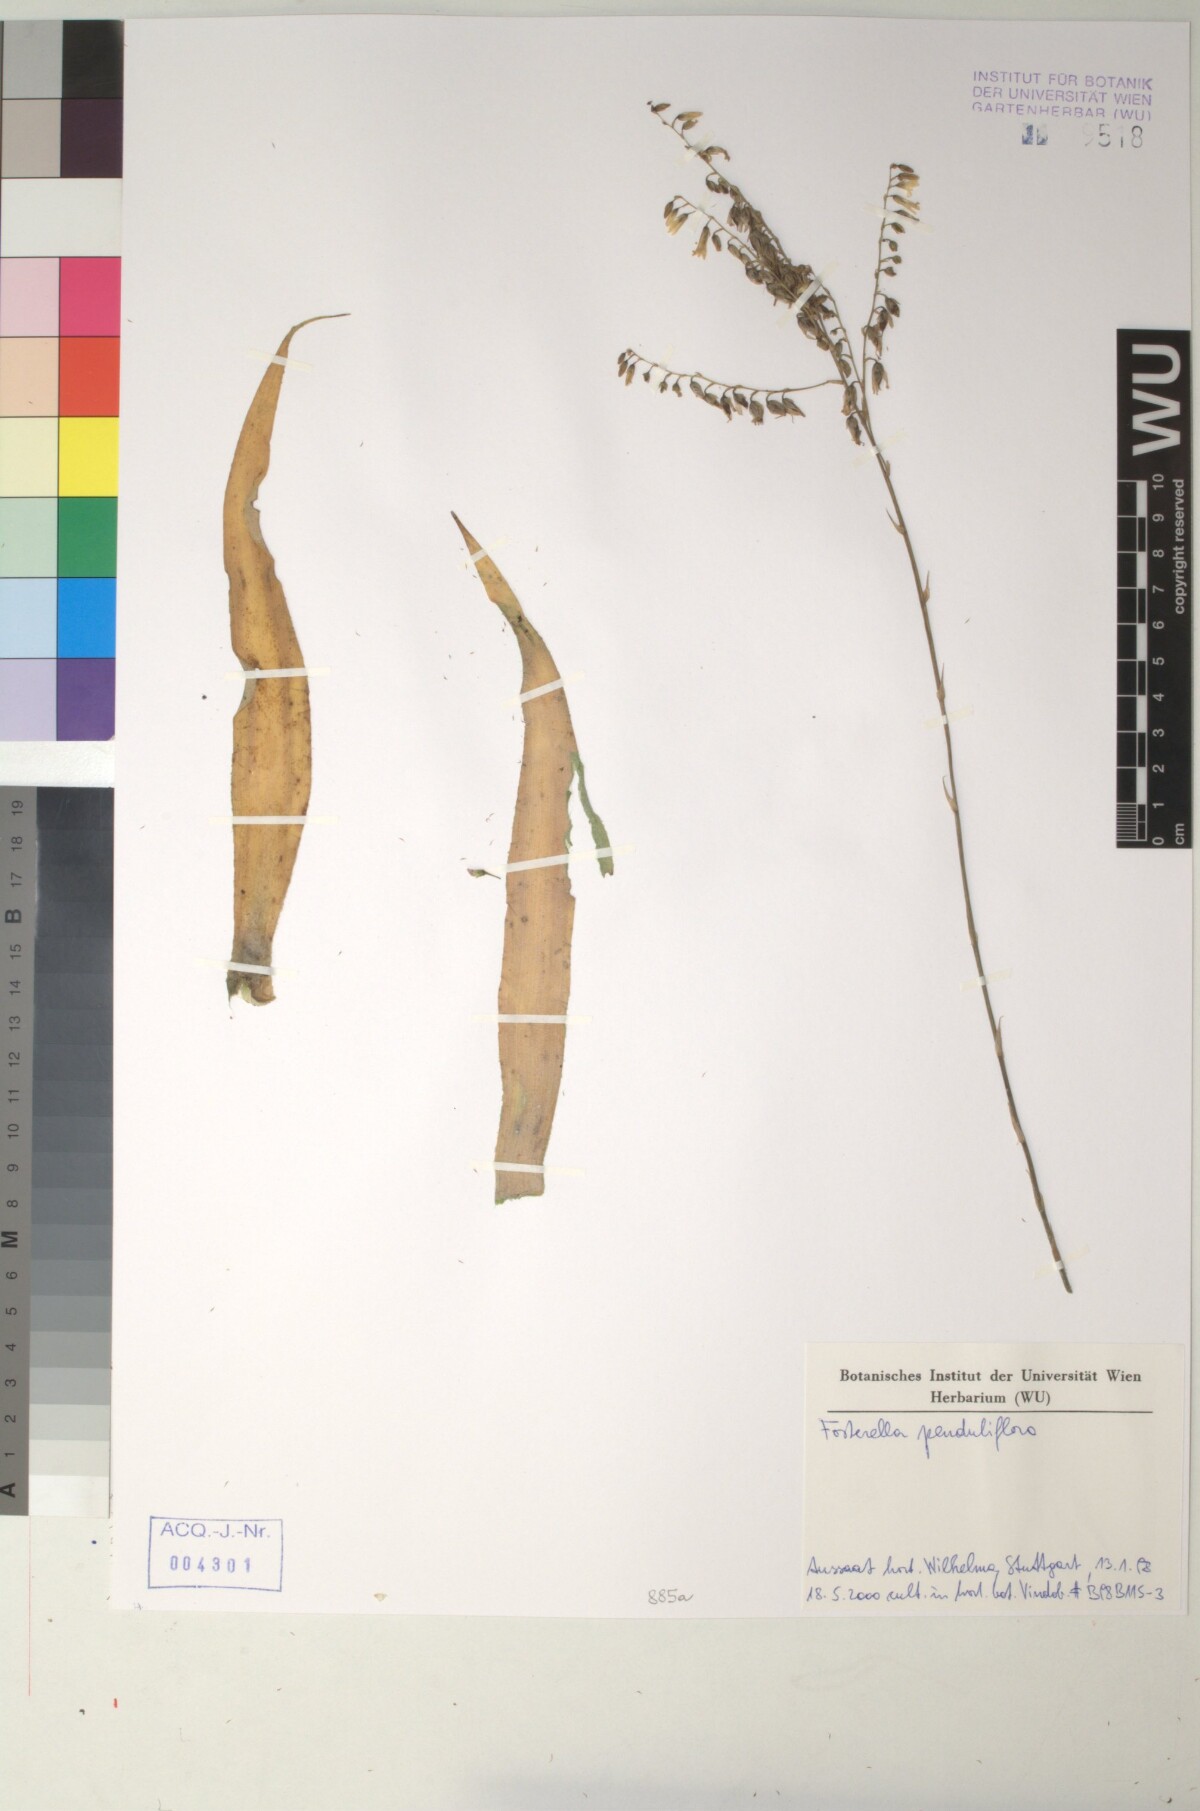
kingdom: Plantae
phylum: Tracheophyta
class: Liliopsida
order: Poales
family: Bromeliaceae
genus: Fosterella
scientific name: Fosterella penduliflora
